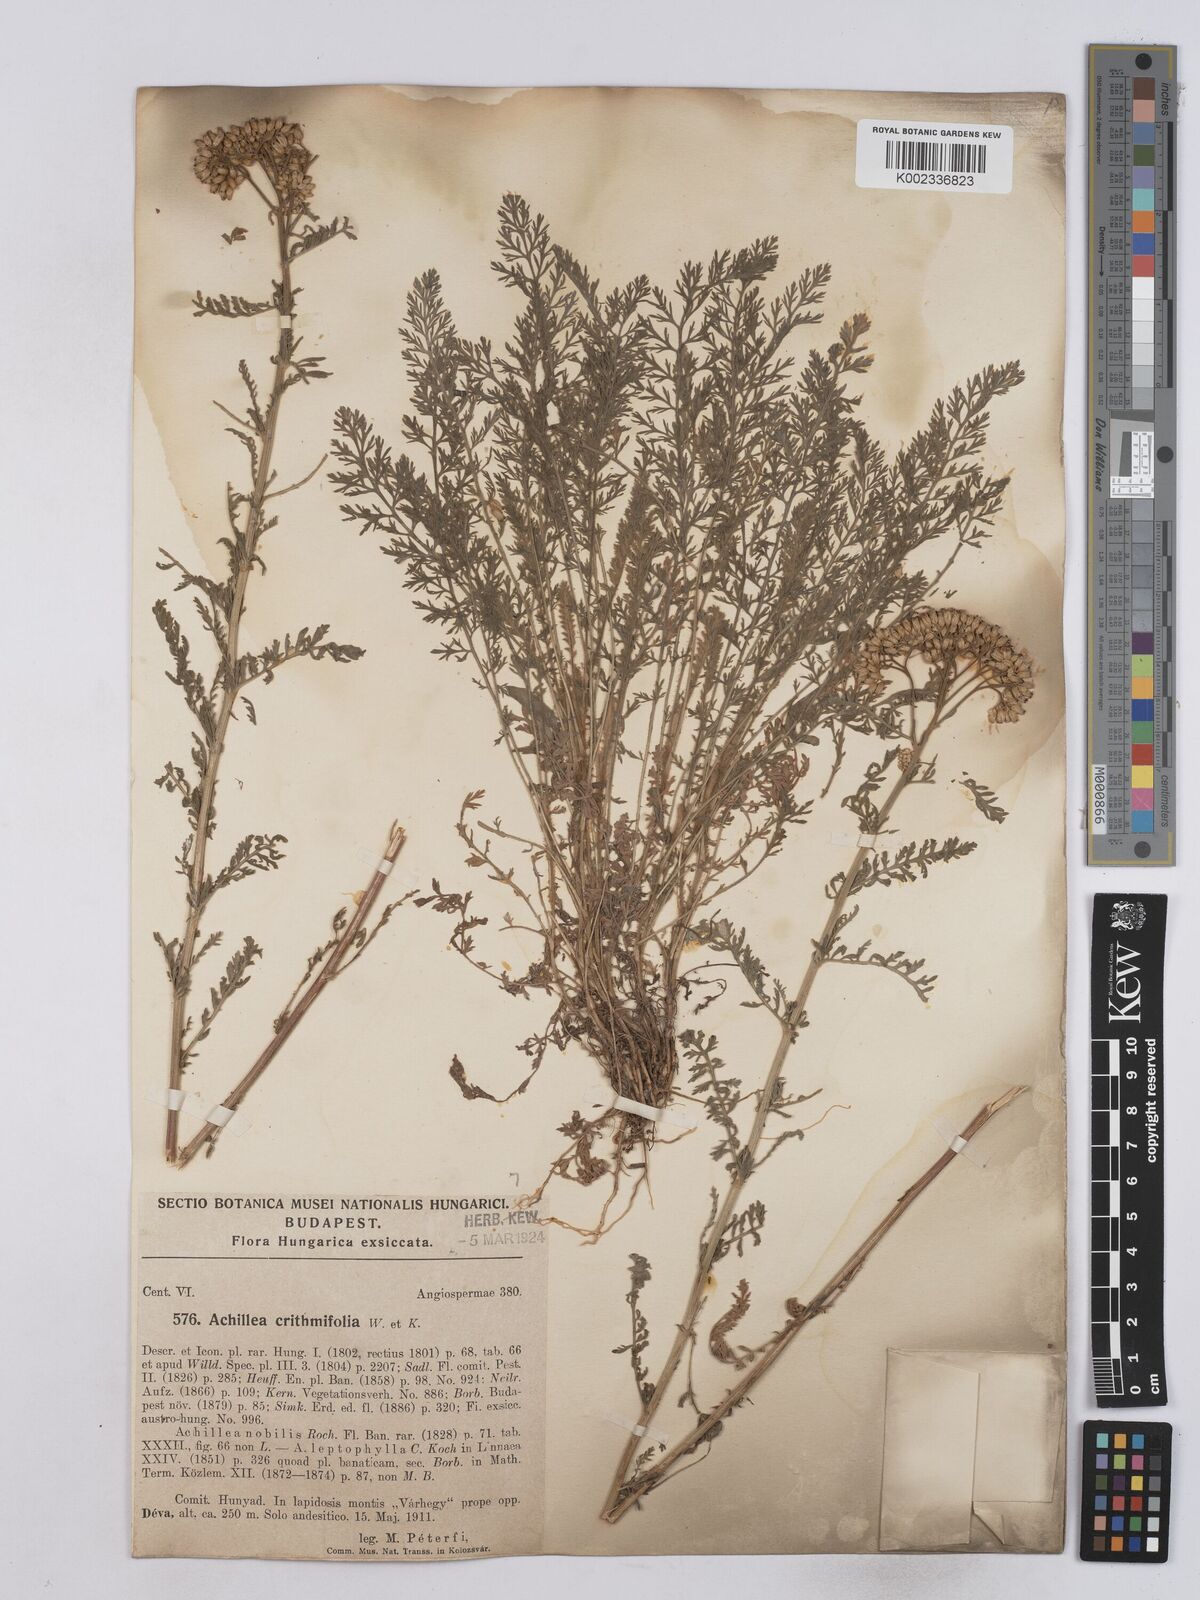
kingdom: Plantae
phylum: Tracheophyta
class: Magnoliopsida
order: Asterales
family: Asteraceae
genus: Achillea
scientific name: Achillea crithmifolia
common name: Yarrow
